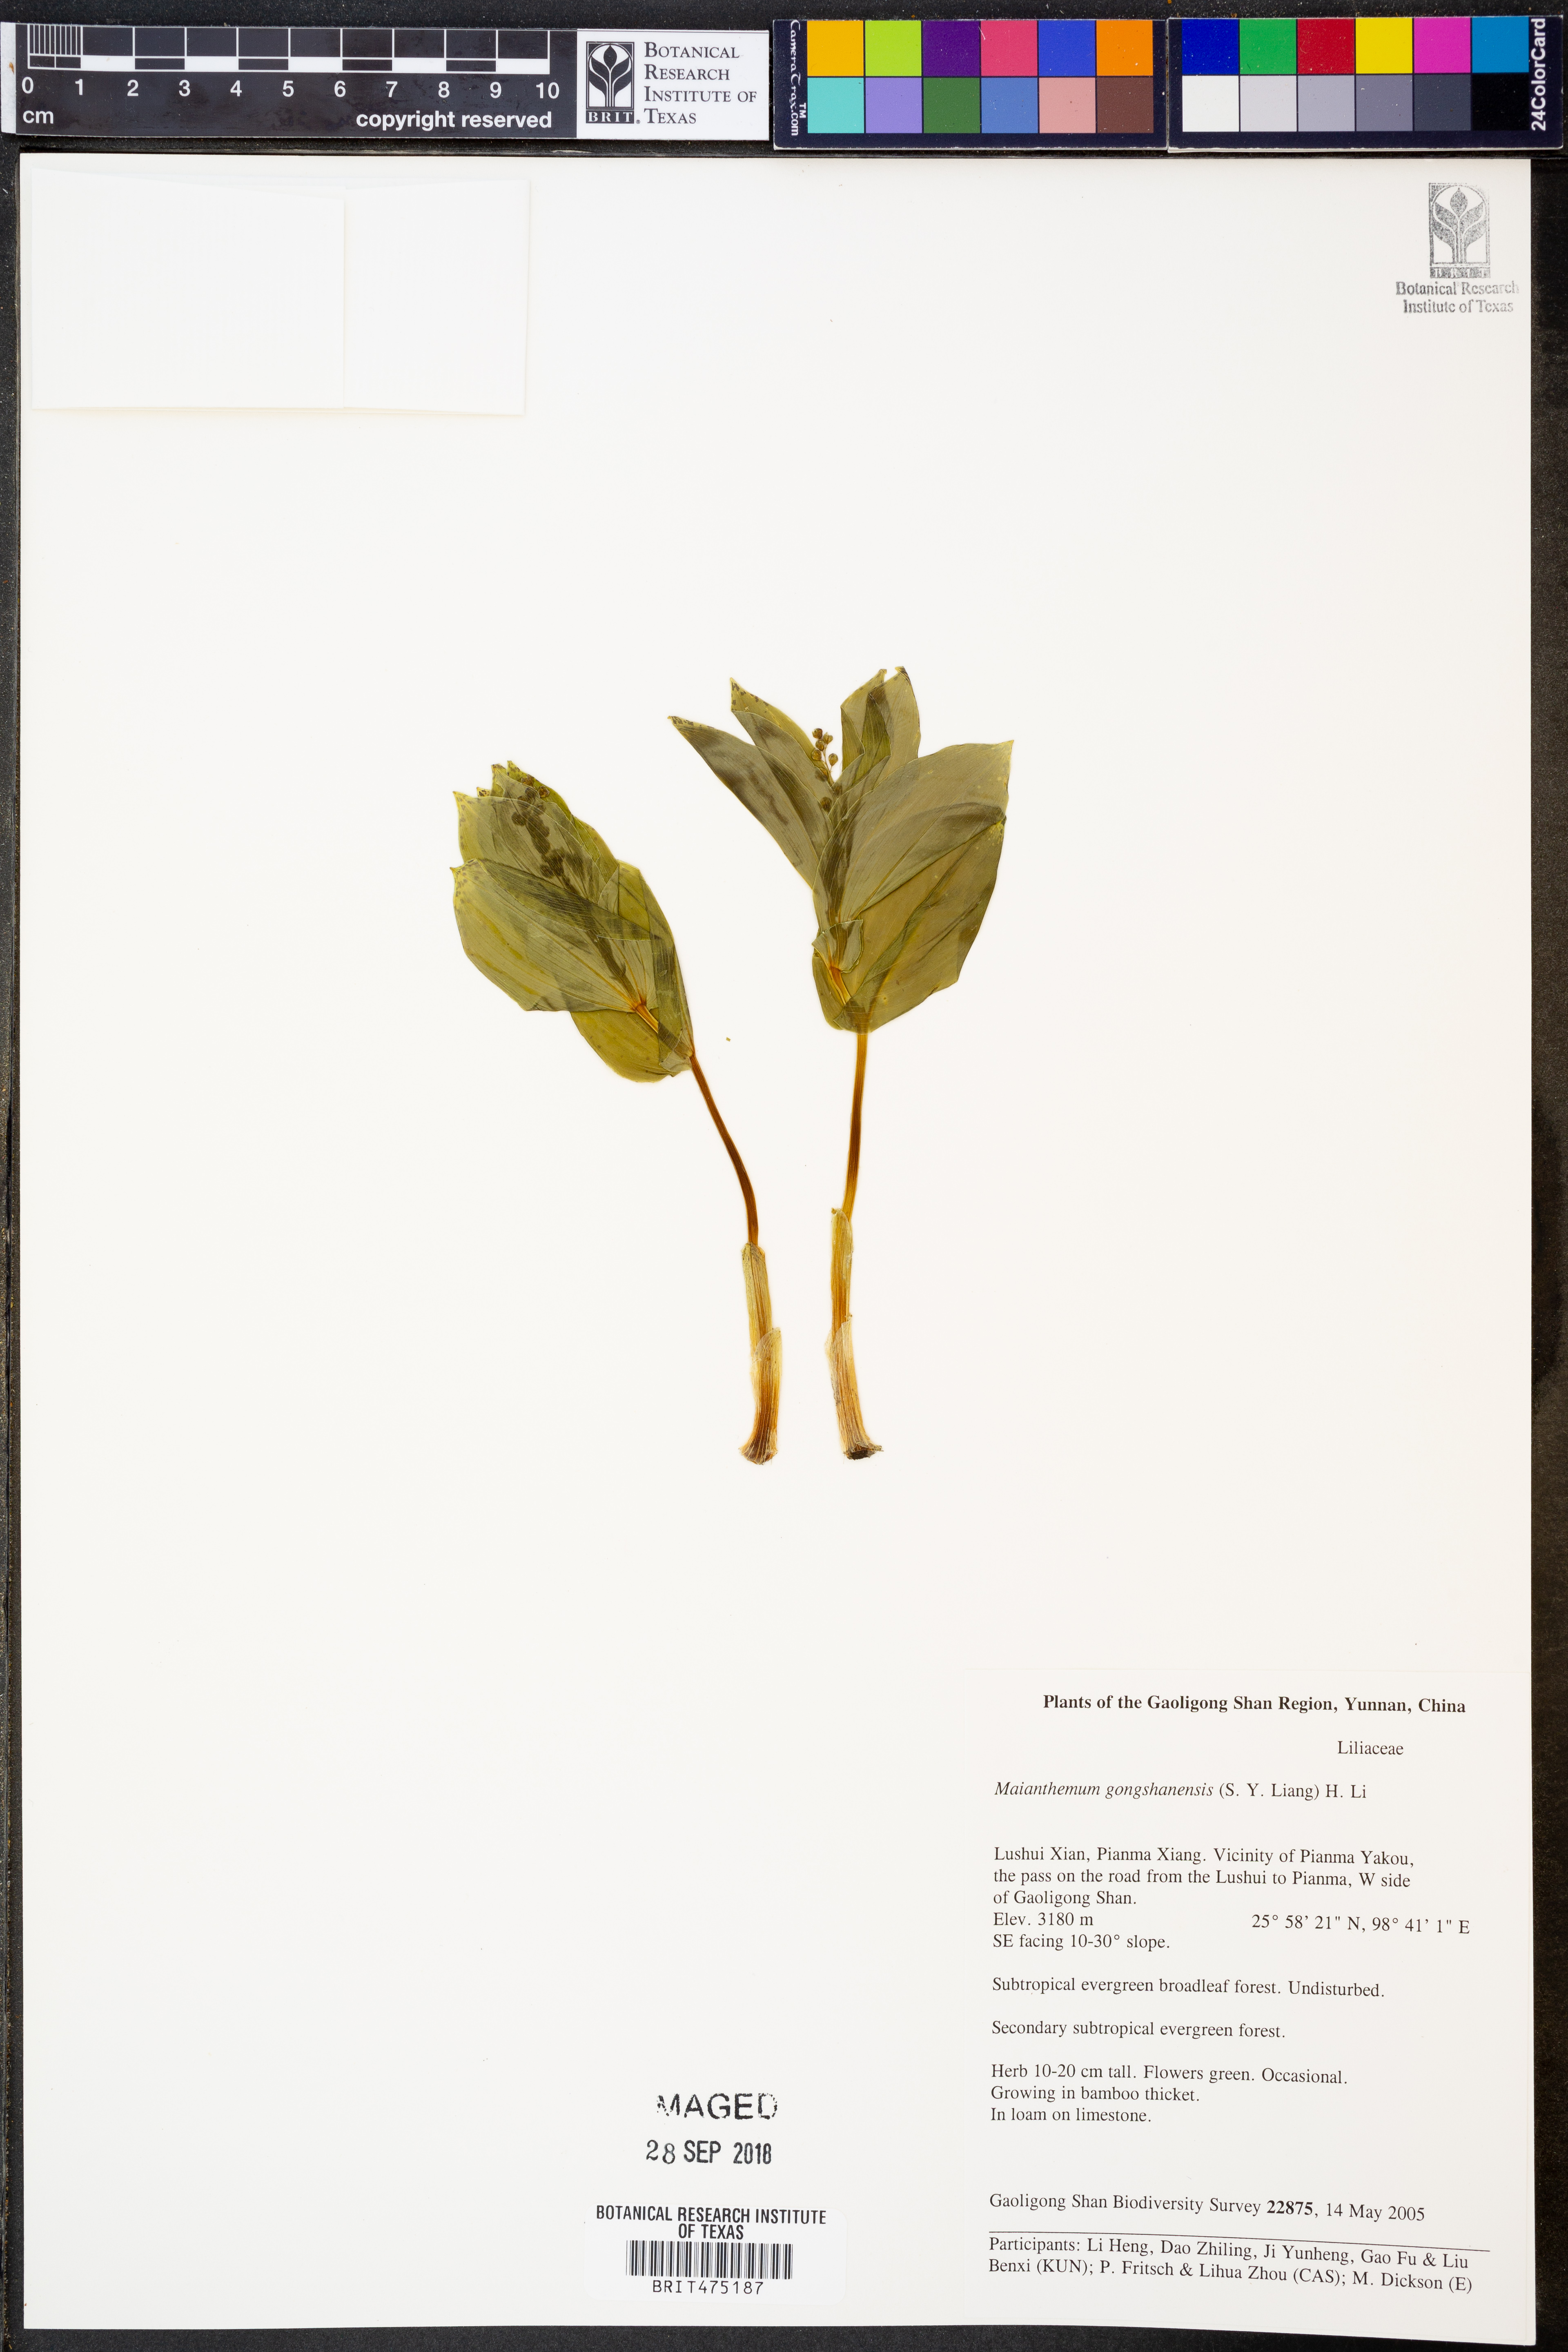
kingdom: Plantae
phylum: Tracheophyta
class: Liliopsida
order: Asparagales
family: Asparagaceae
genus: Maianthemum
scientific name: Maianthemum gongshanensis
